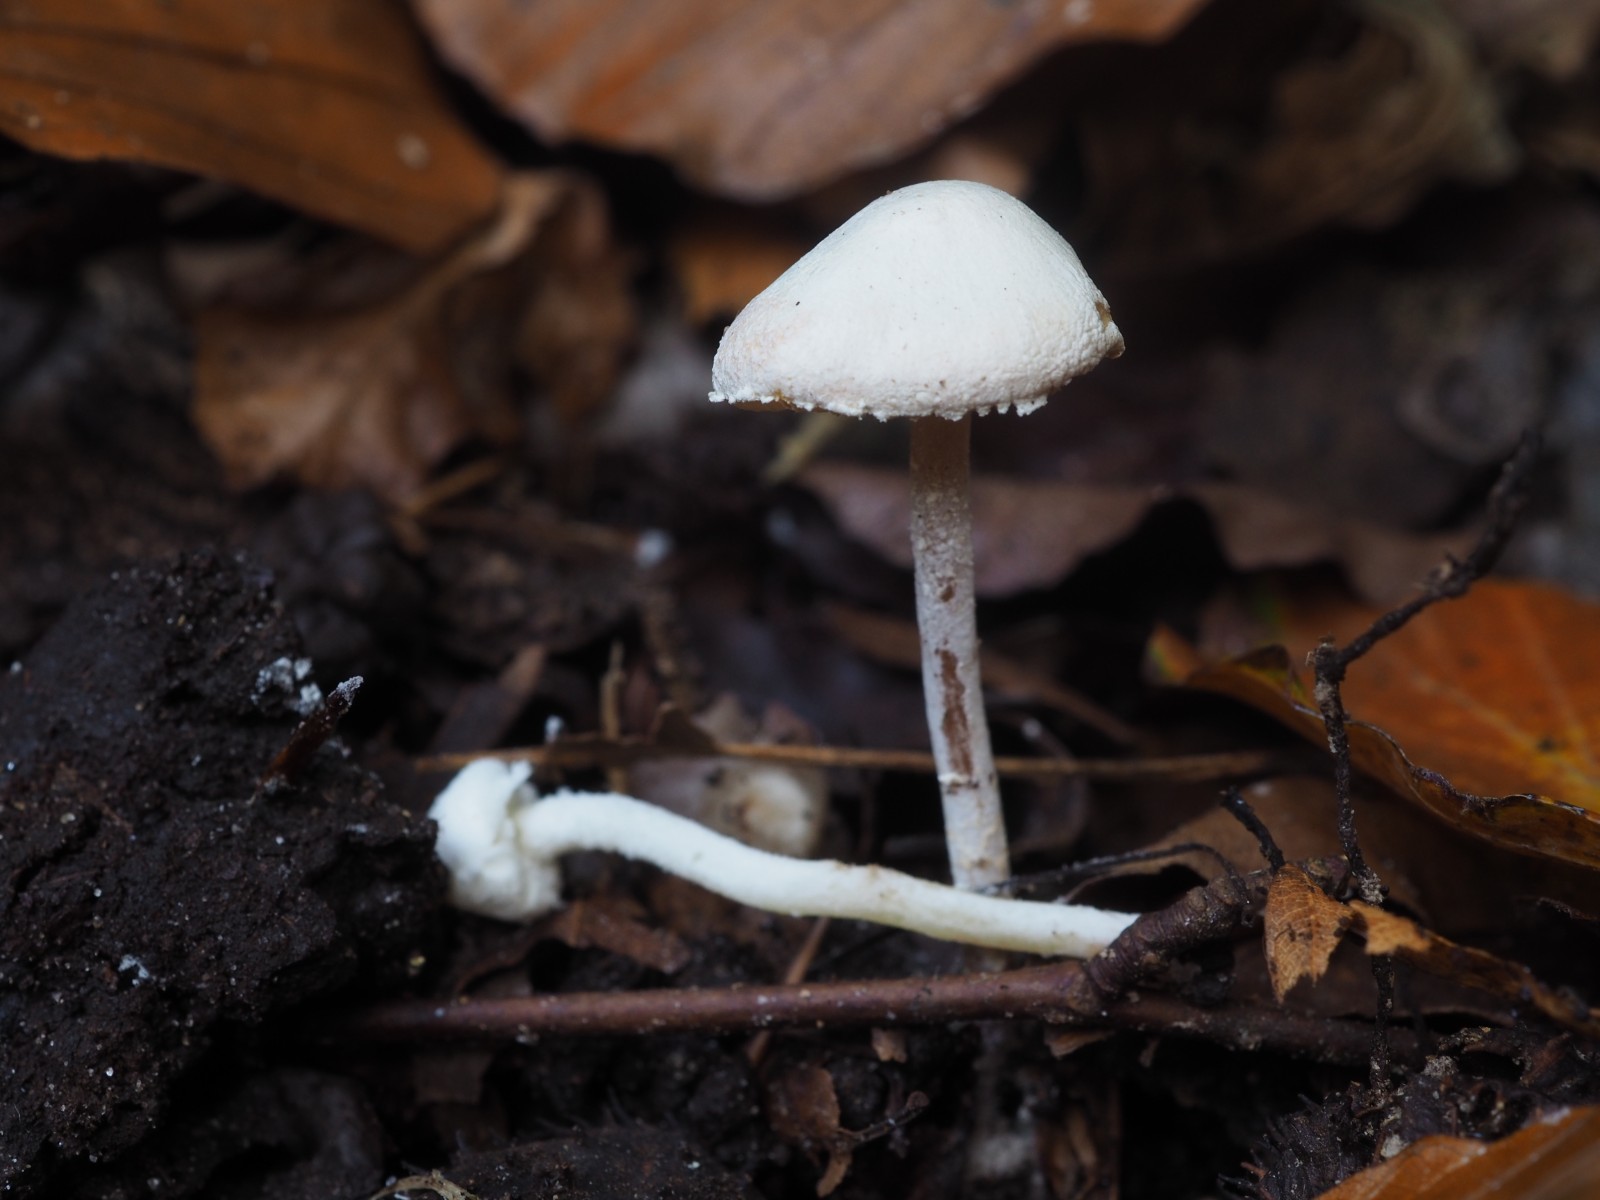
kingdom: Fungi
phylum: Basidiomycota
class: Agaricomycetes
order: Agaricales
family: Agaricaceae
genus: Cystolepiota
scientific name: Cystolepiota hetieri
